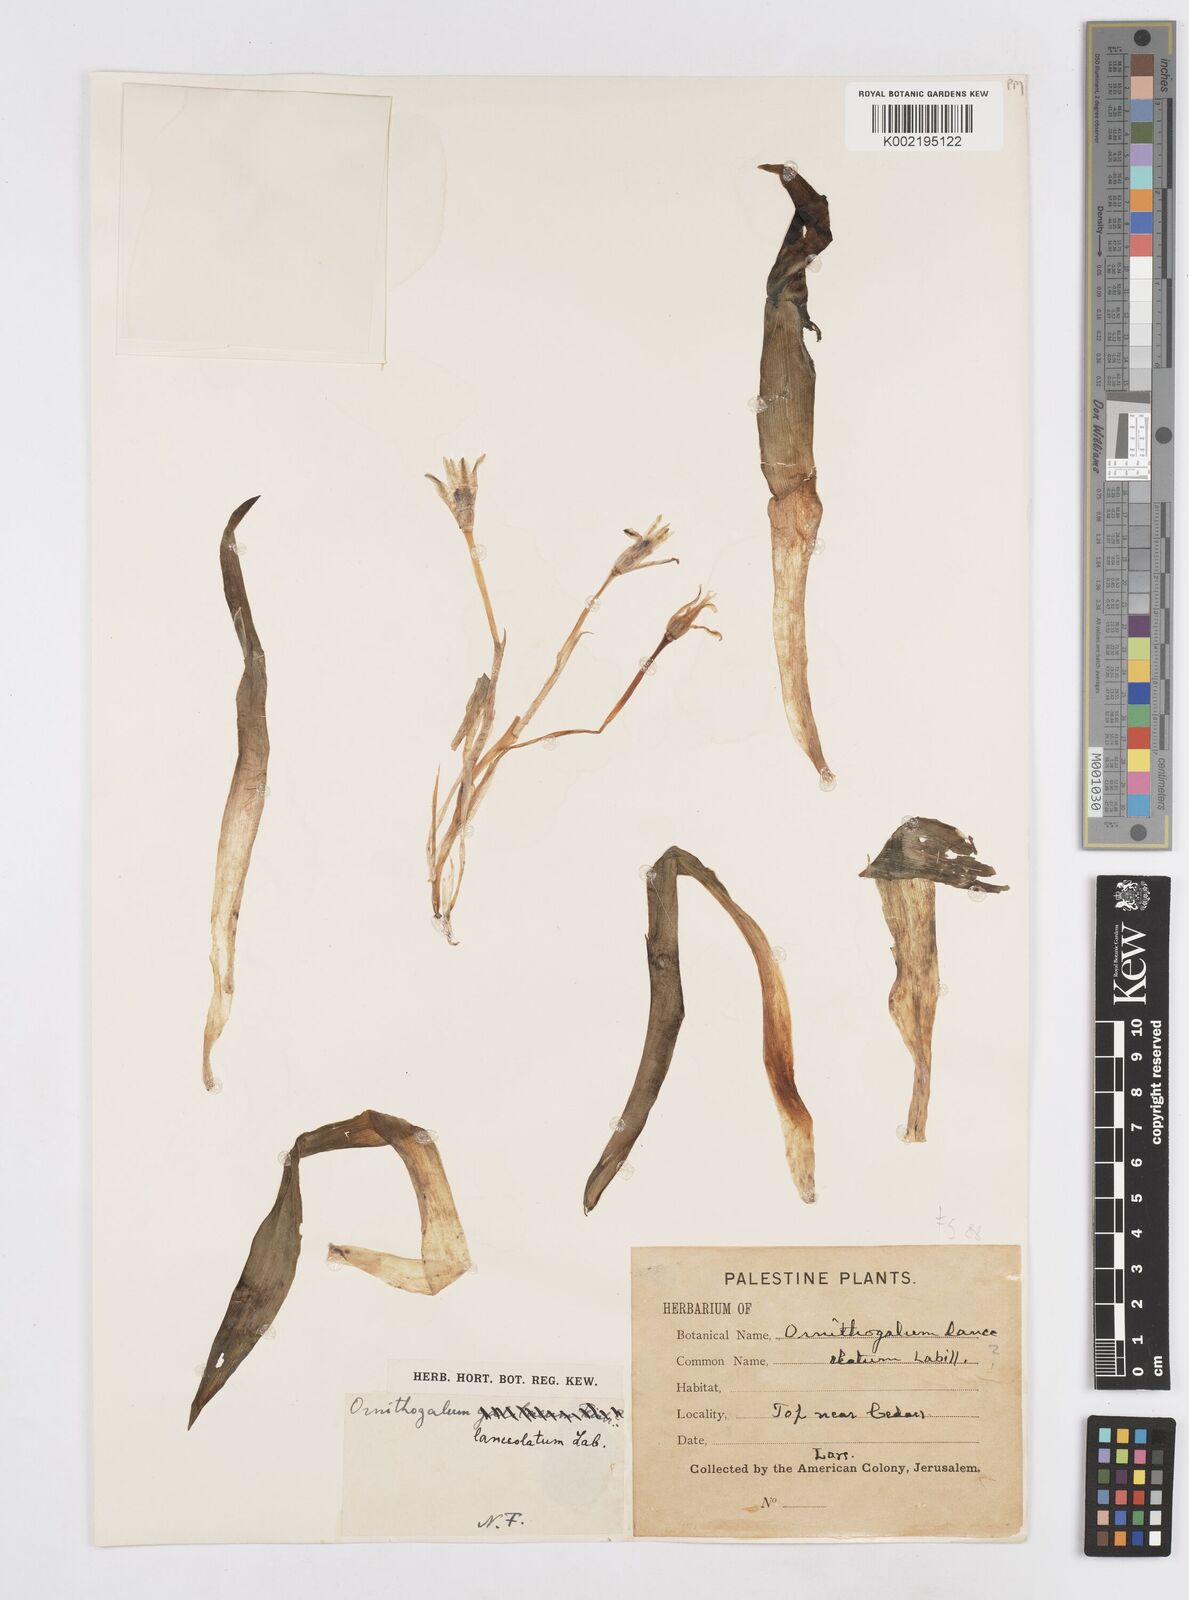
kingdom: Plantae
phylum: Tracheophyta
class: Liliopsida
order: Asparagales
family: Asparagaceae
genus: Ornithogalum
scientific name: Ornithogalum lanceolatum
